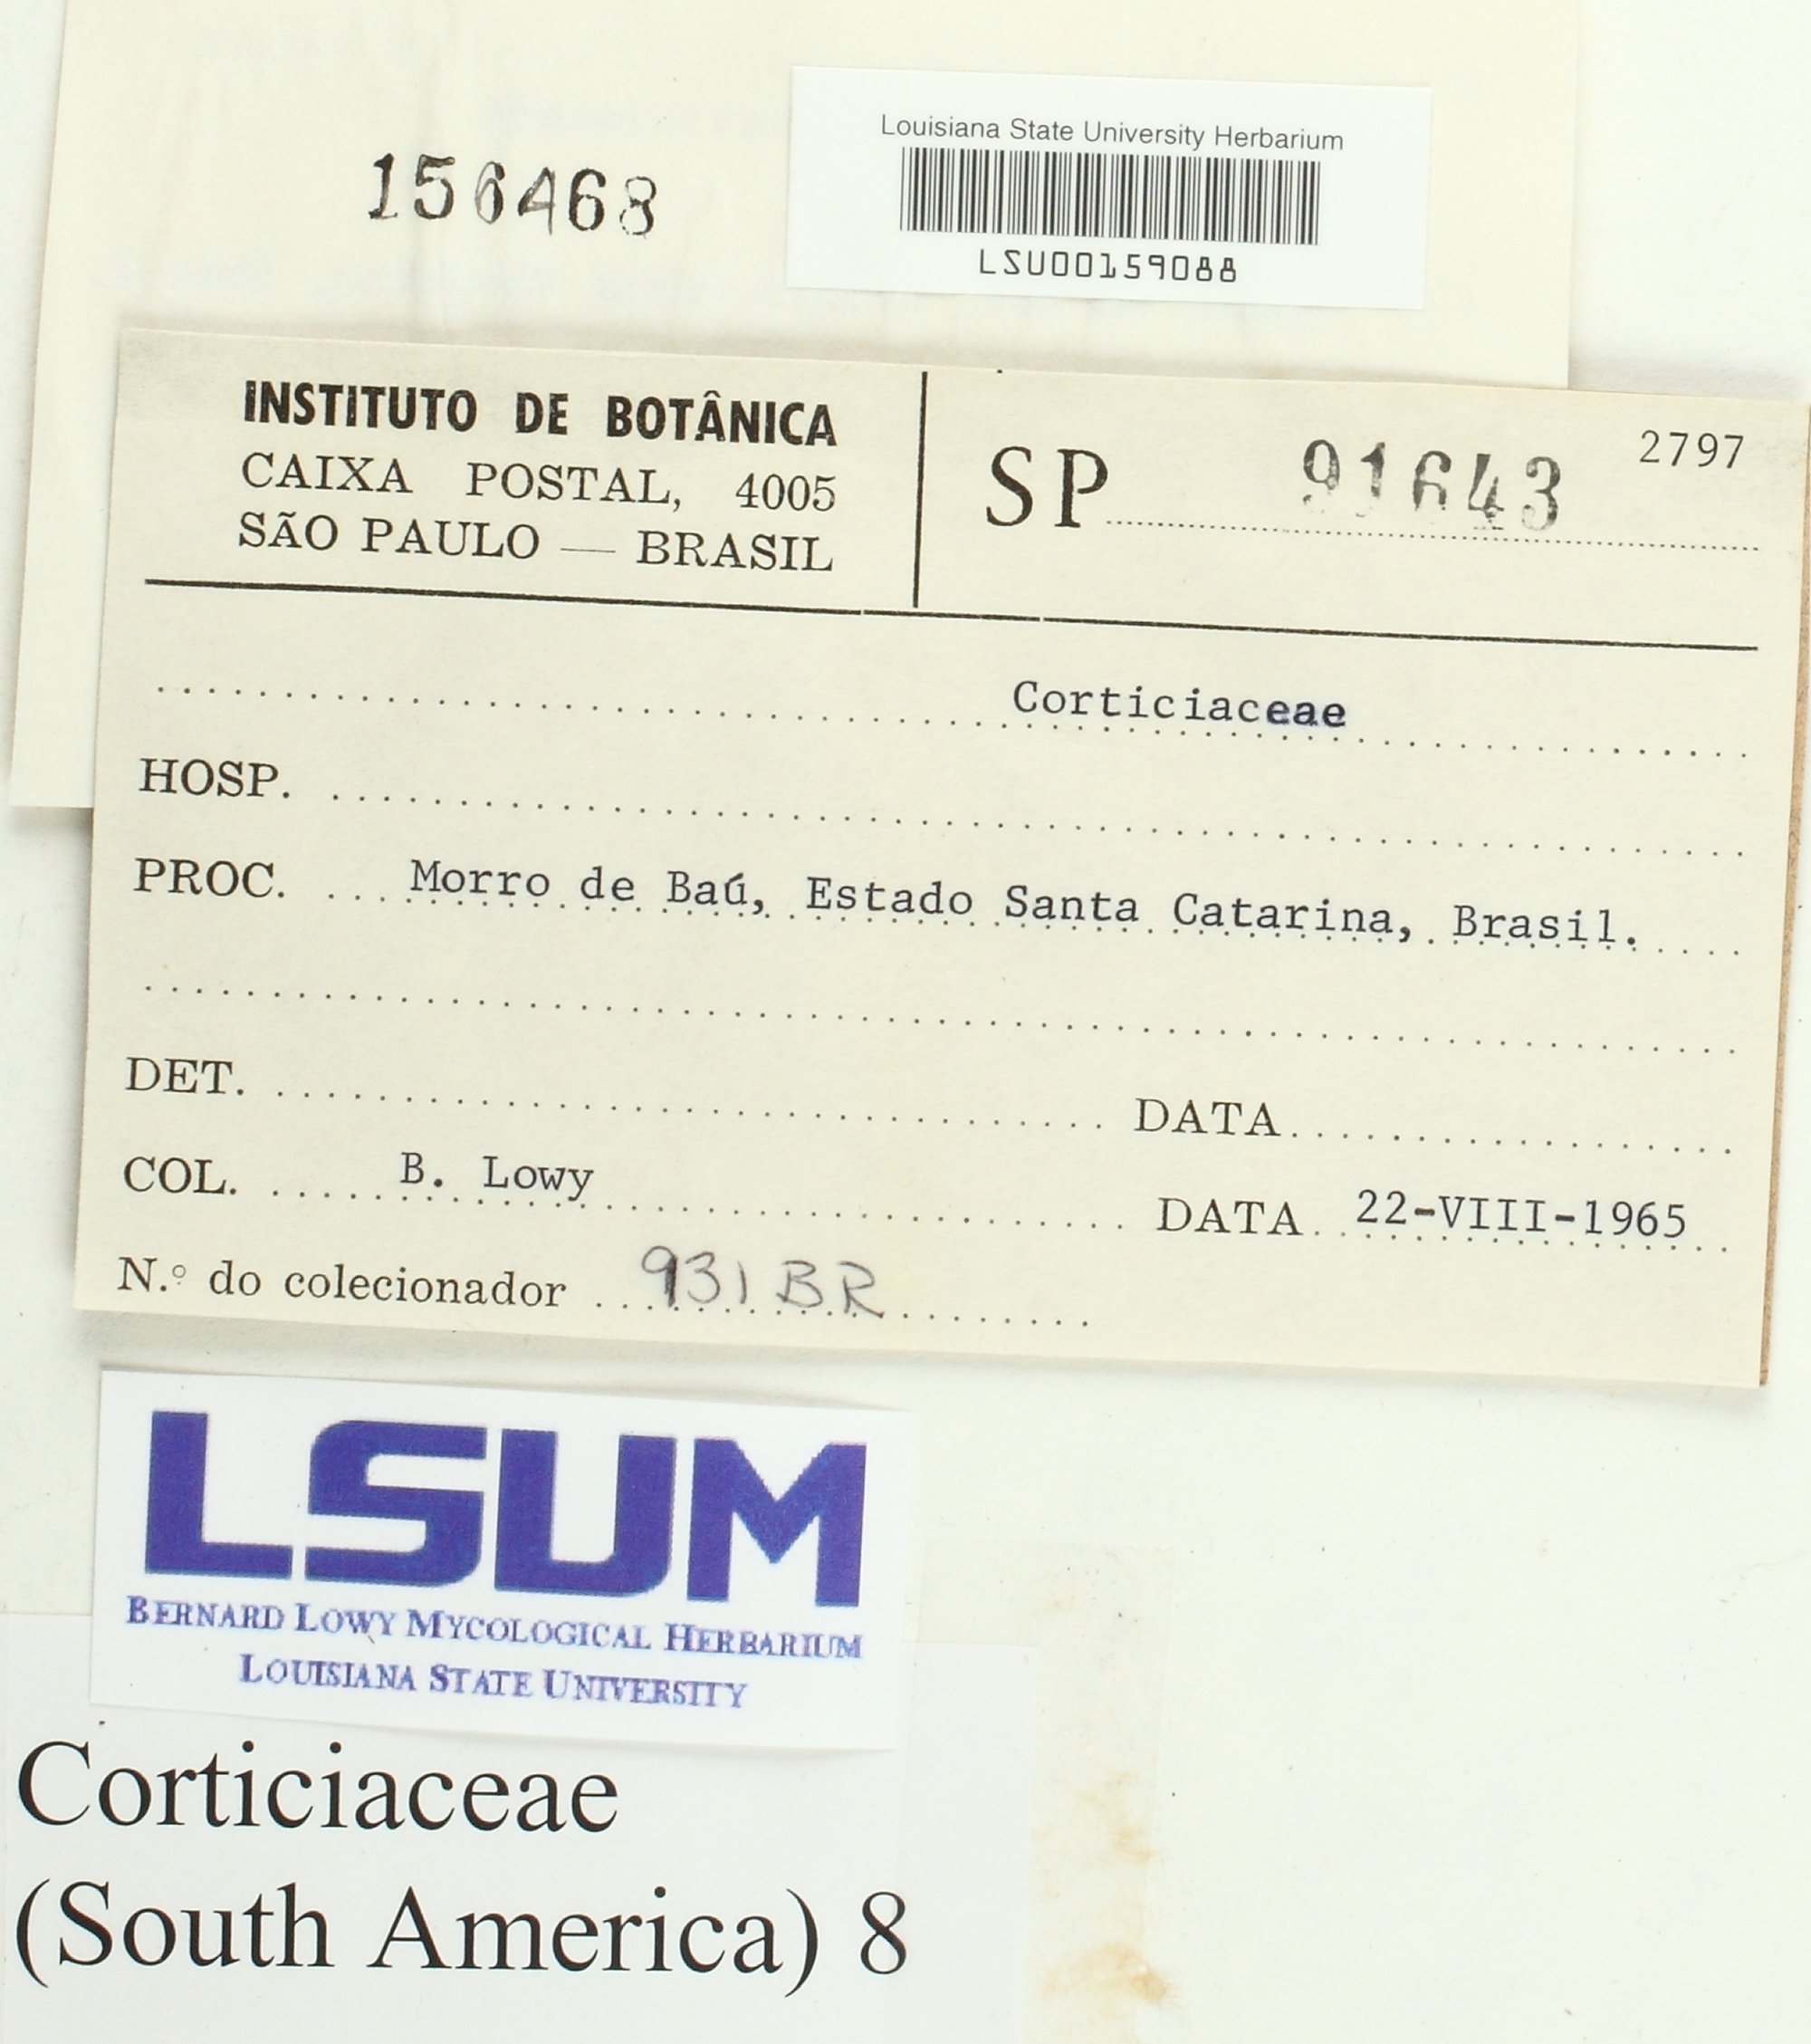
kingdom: Fungi
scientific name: Fungi
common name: Fungi
